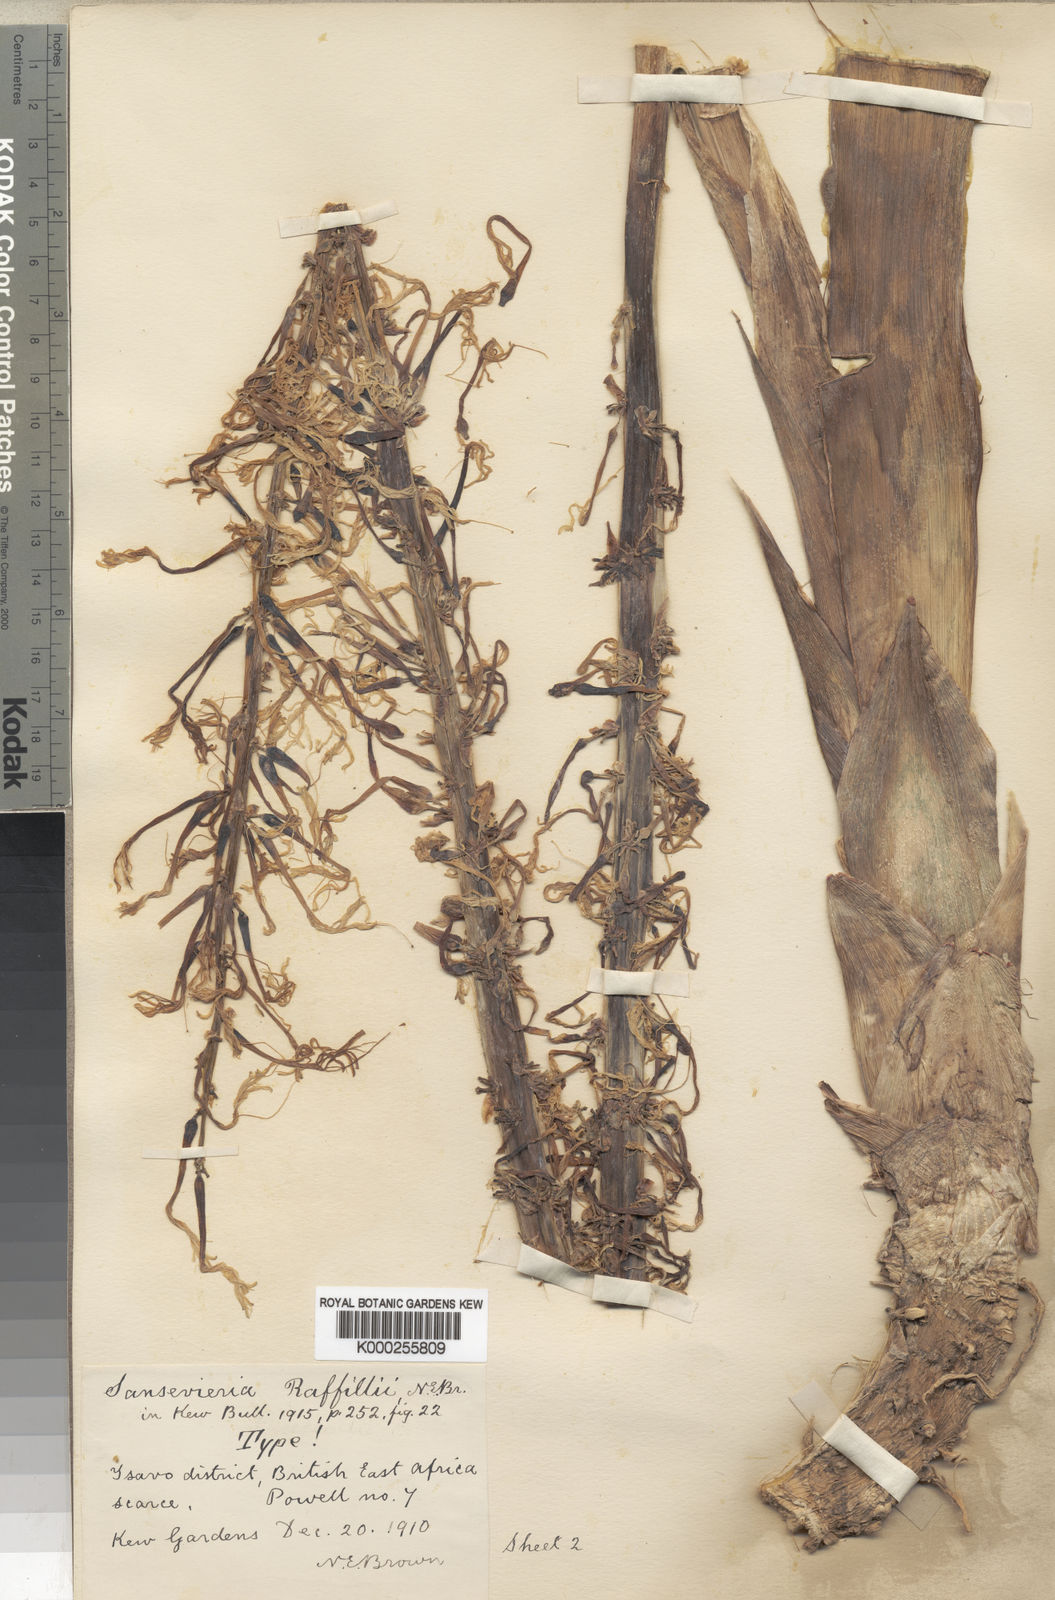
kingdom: Plantae
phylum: Tracheophyta
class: Liliopsida
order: Asparagales
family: Asparagaceae
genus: Dracaena
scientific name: Dracaena raffillii
